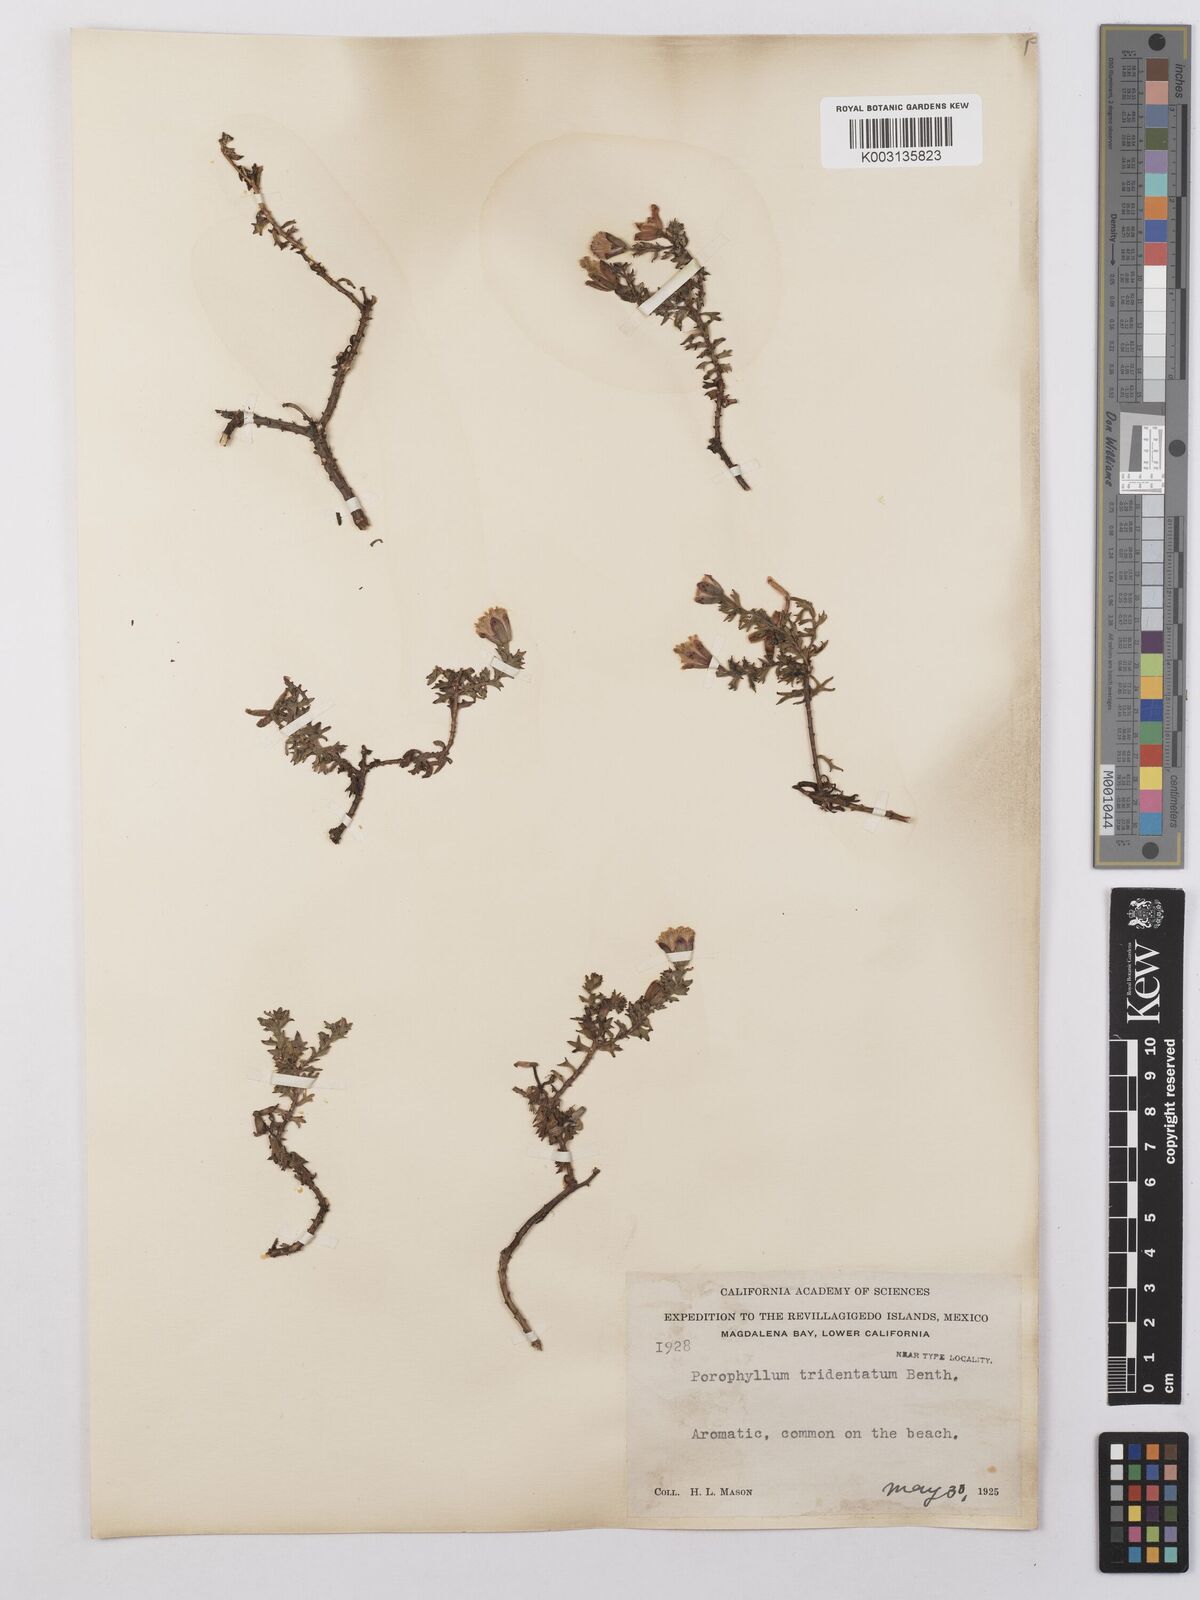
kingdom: Plantae
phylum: Tracheophyta
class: Magnoliopsida
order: Asterales
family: Asteraceae
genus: Bajacalia
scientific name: Bajacalia tridentata
